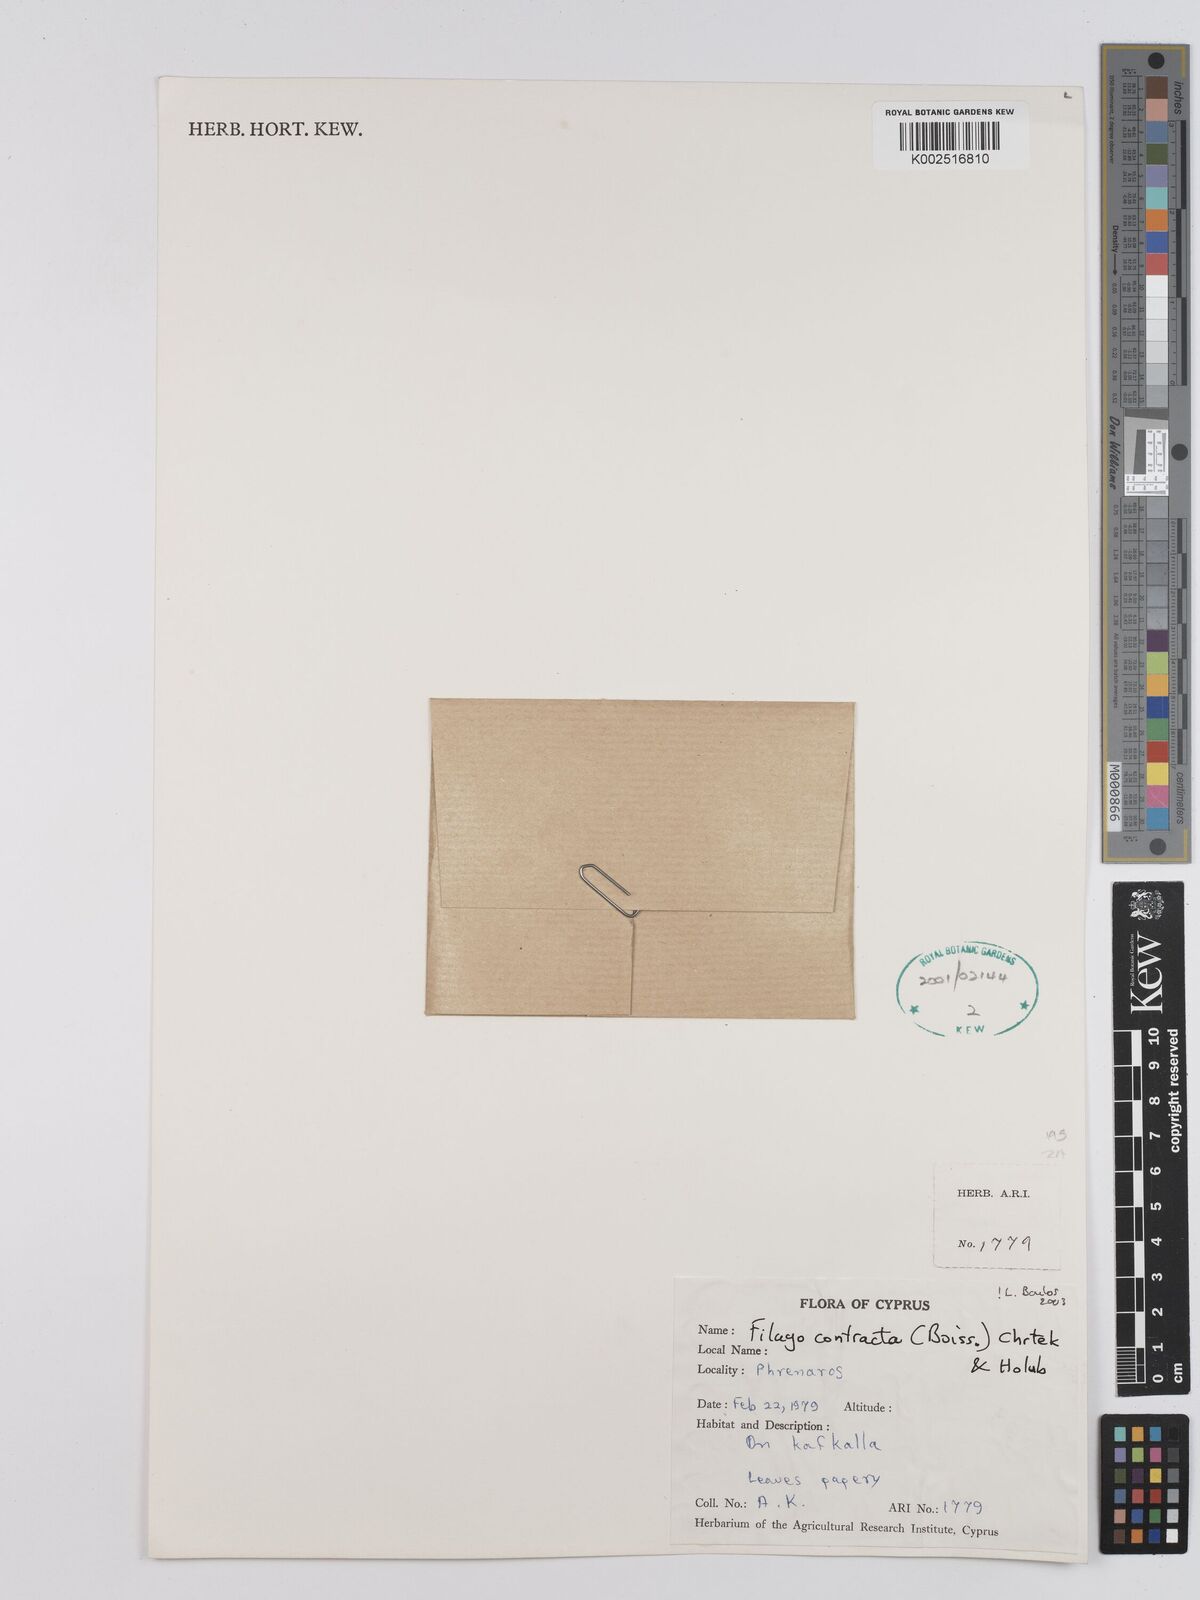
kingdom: Plantae
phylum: Tracheophyta
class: Magnoliopsida
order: Asterales
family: Asteraceae
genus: Filago
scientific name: Filago contracta
